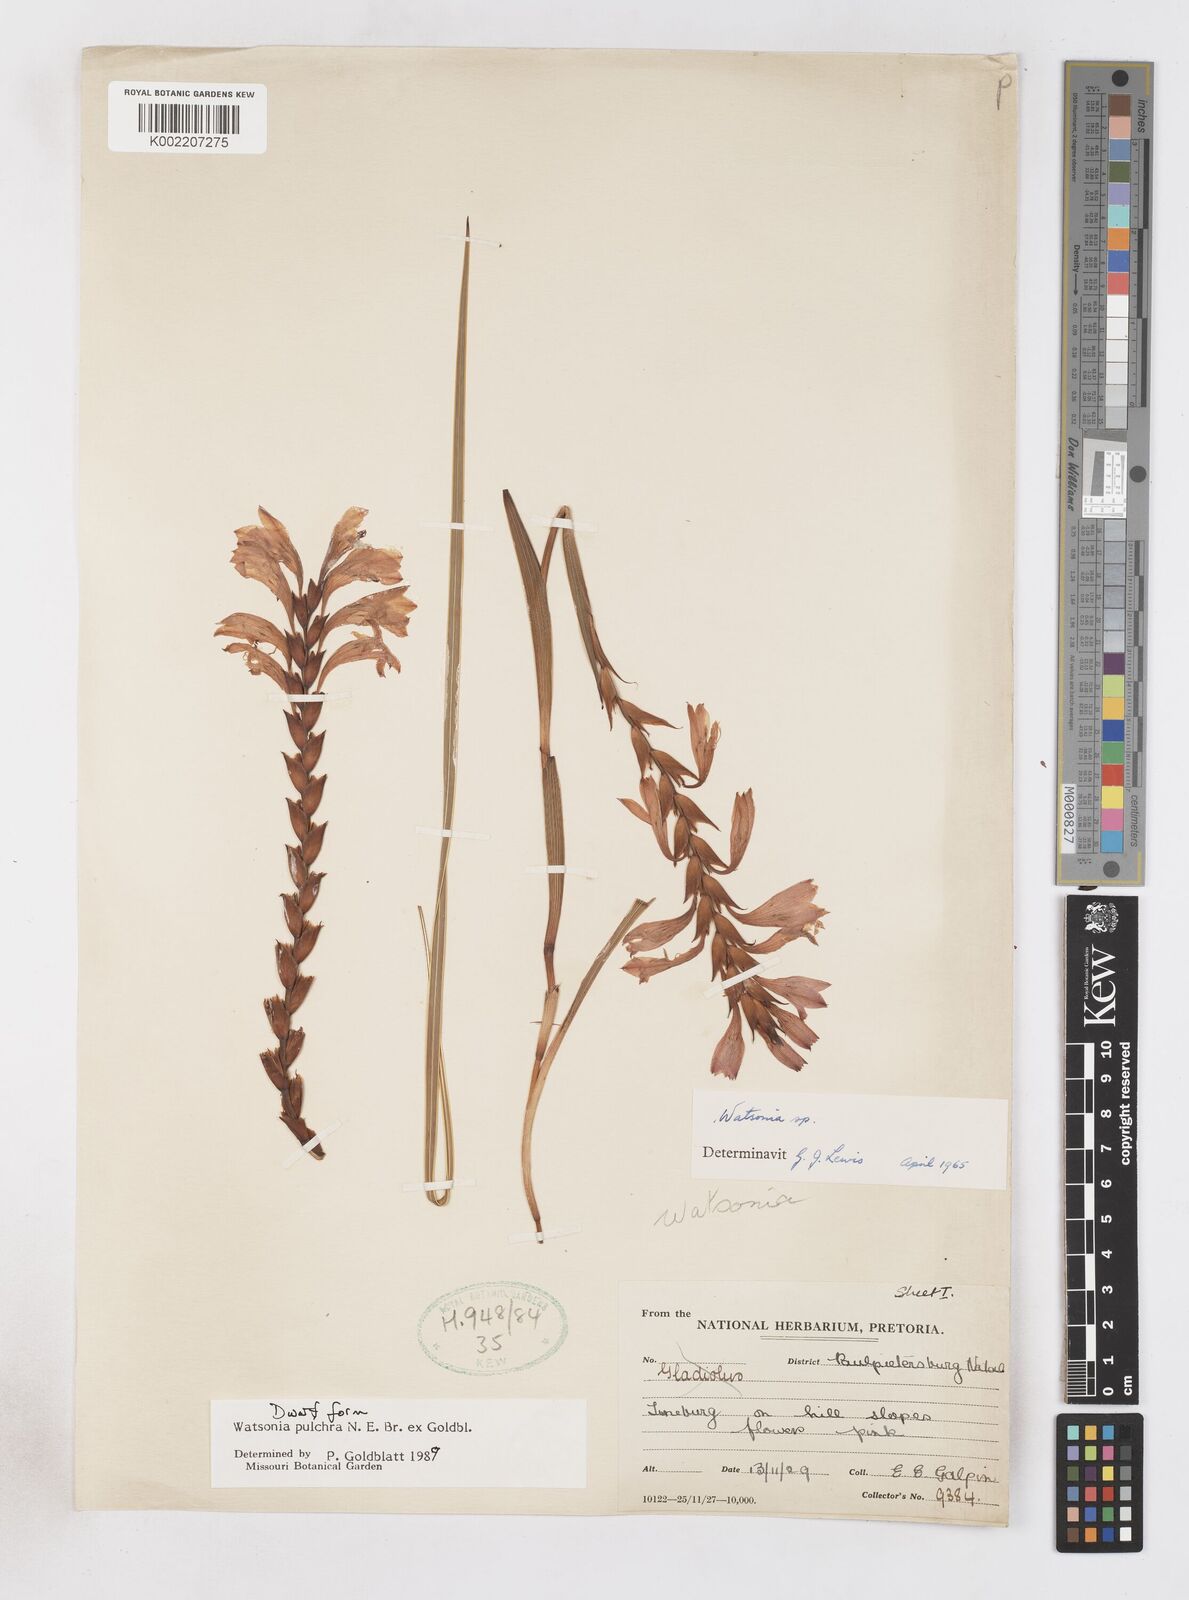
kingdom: Plantae
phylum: Tracheophyta
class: Liliopsida
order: Asparagales
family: Iridaceae
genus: Watsonia
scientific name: Watsonia pulchra
